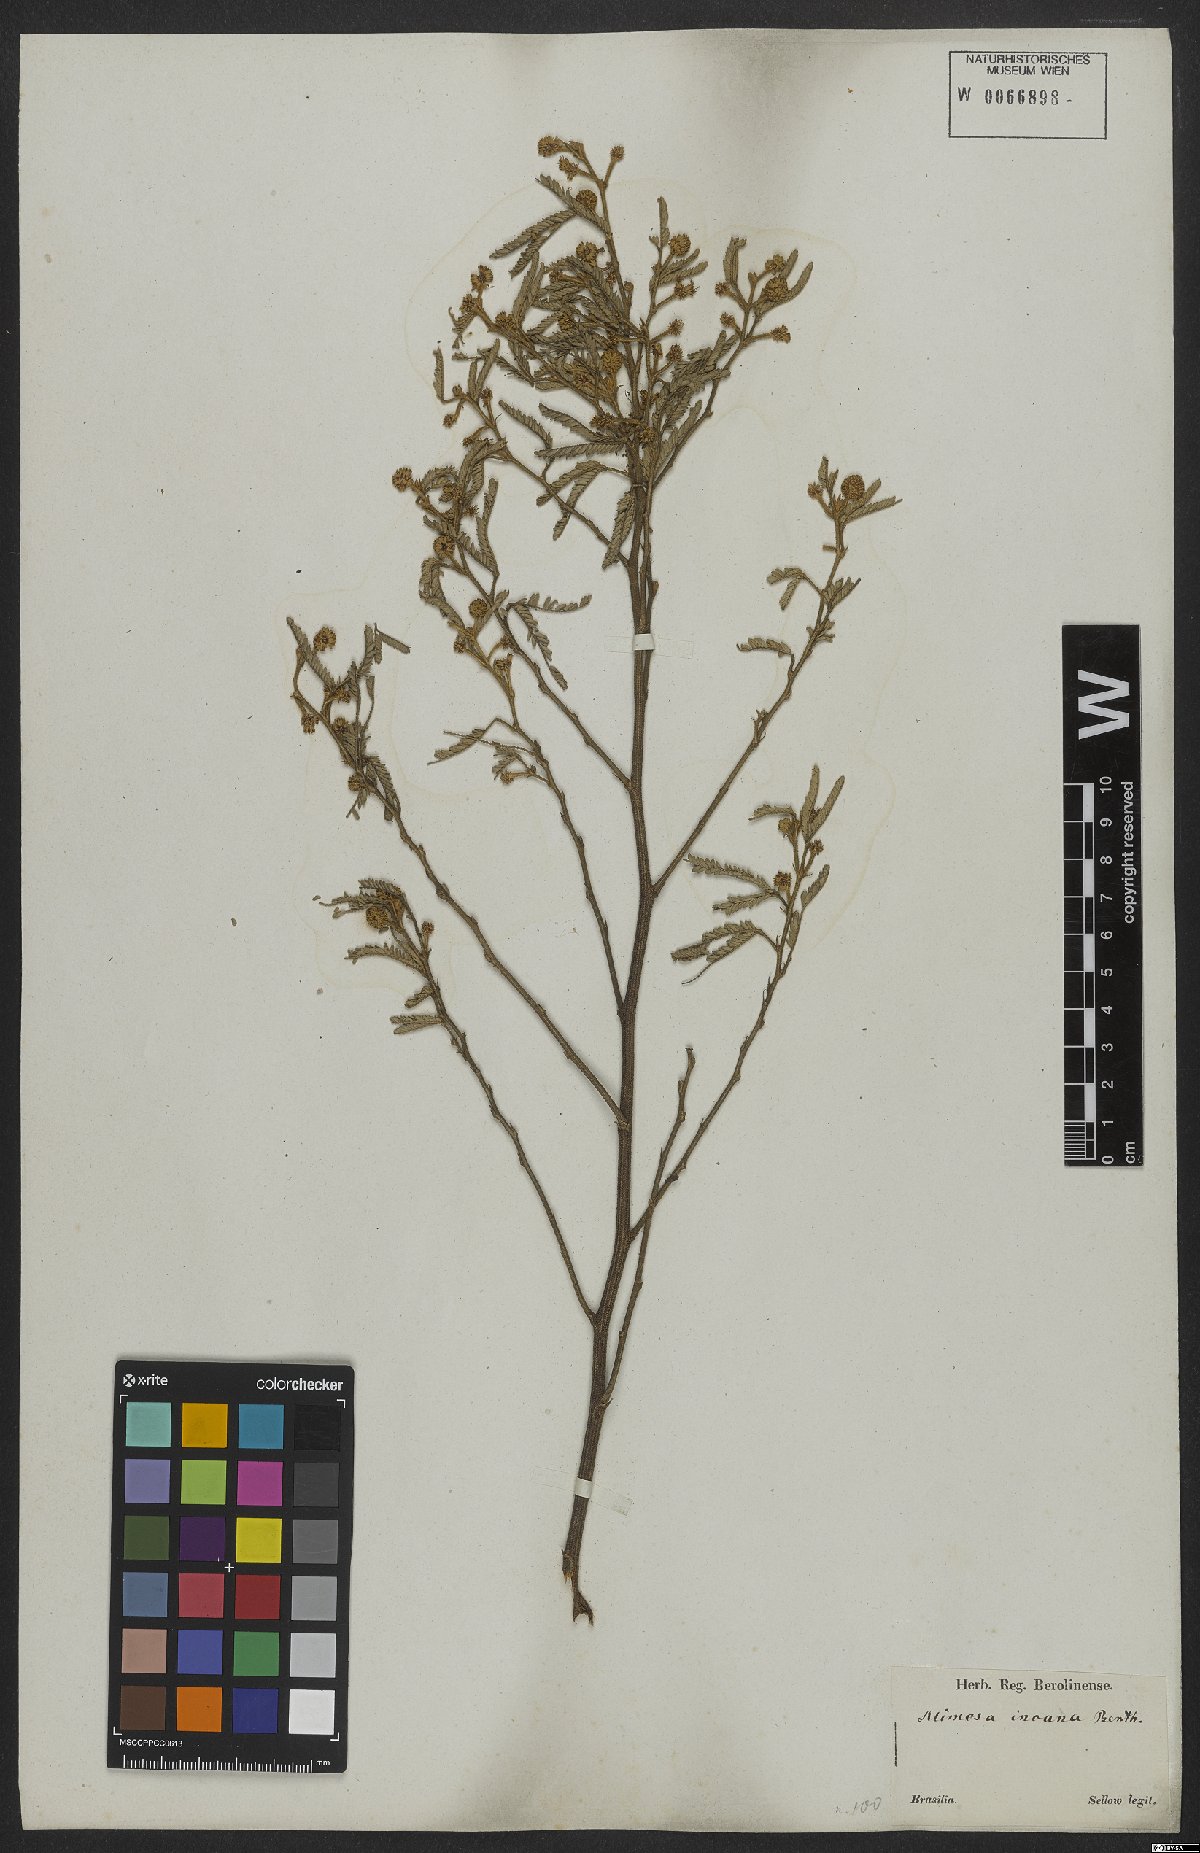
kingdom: Plantae
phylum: Tracheophyta
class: Magnoliopsida
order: Fabales
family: Fabaceae
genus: Mimosa
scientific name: Mimosa incana
